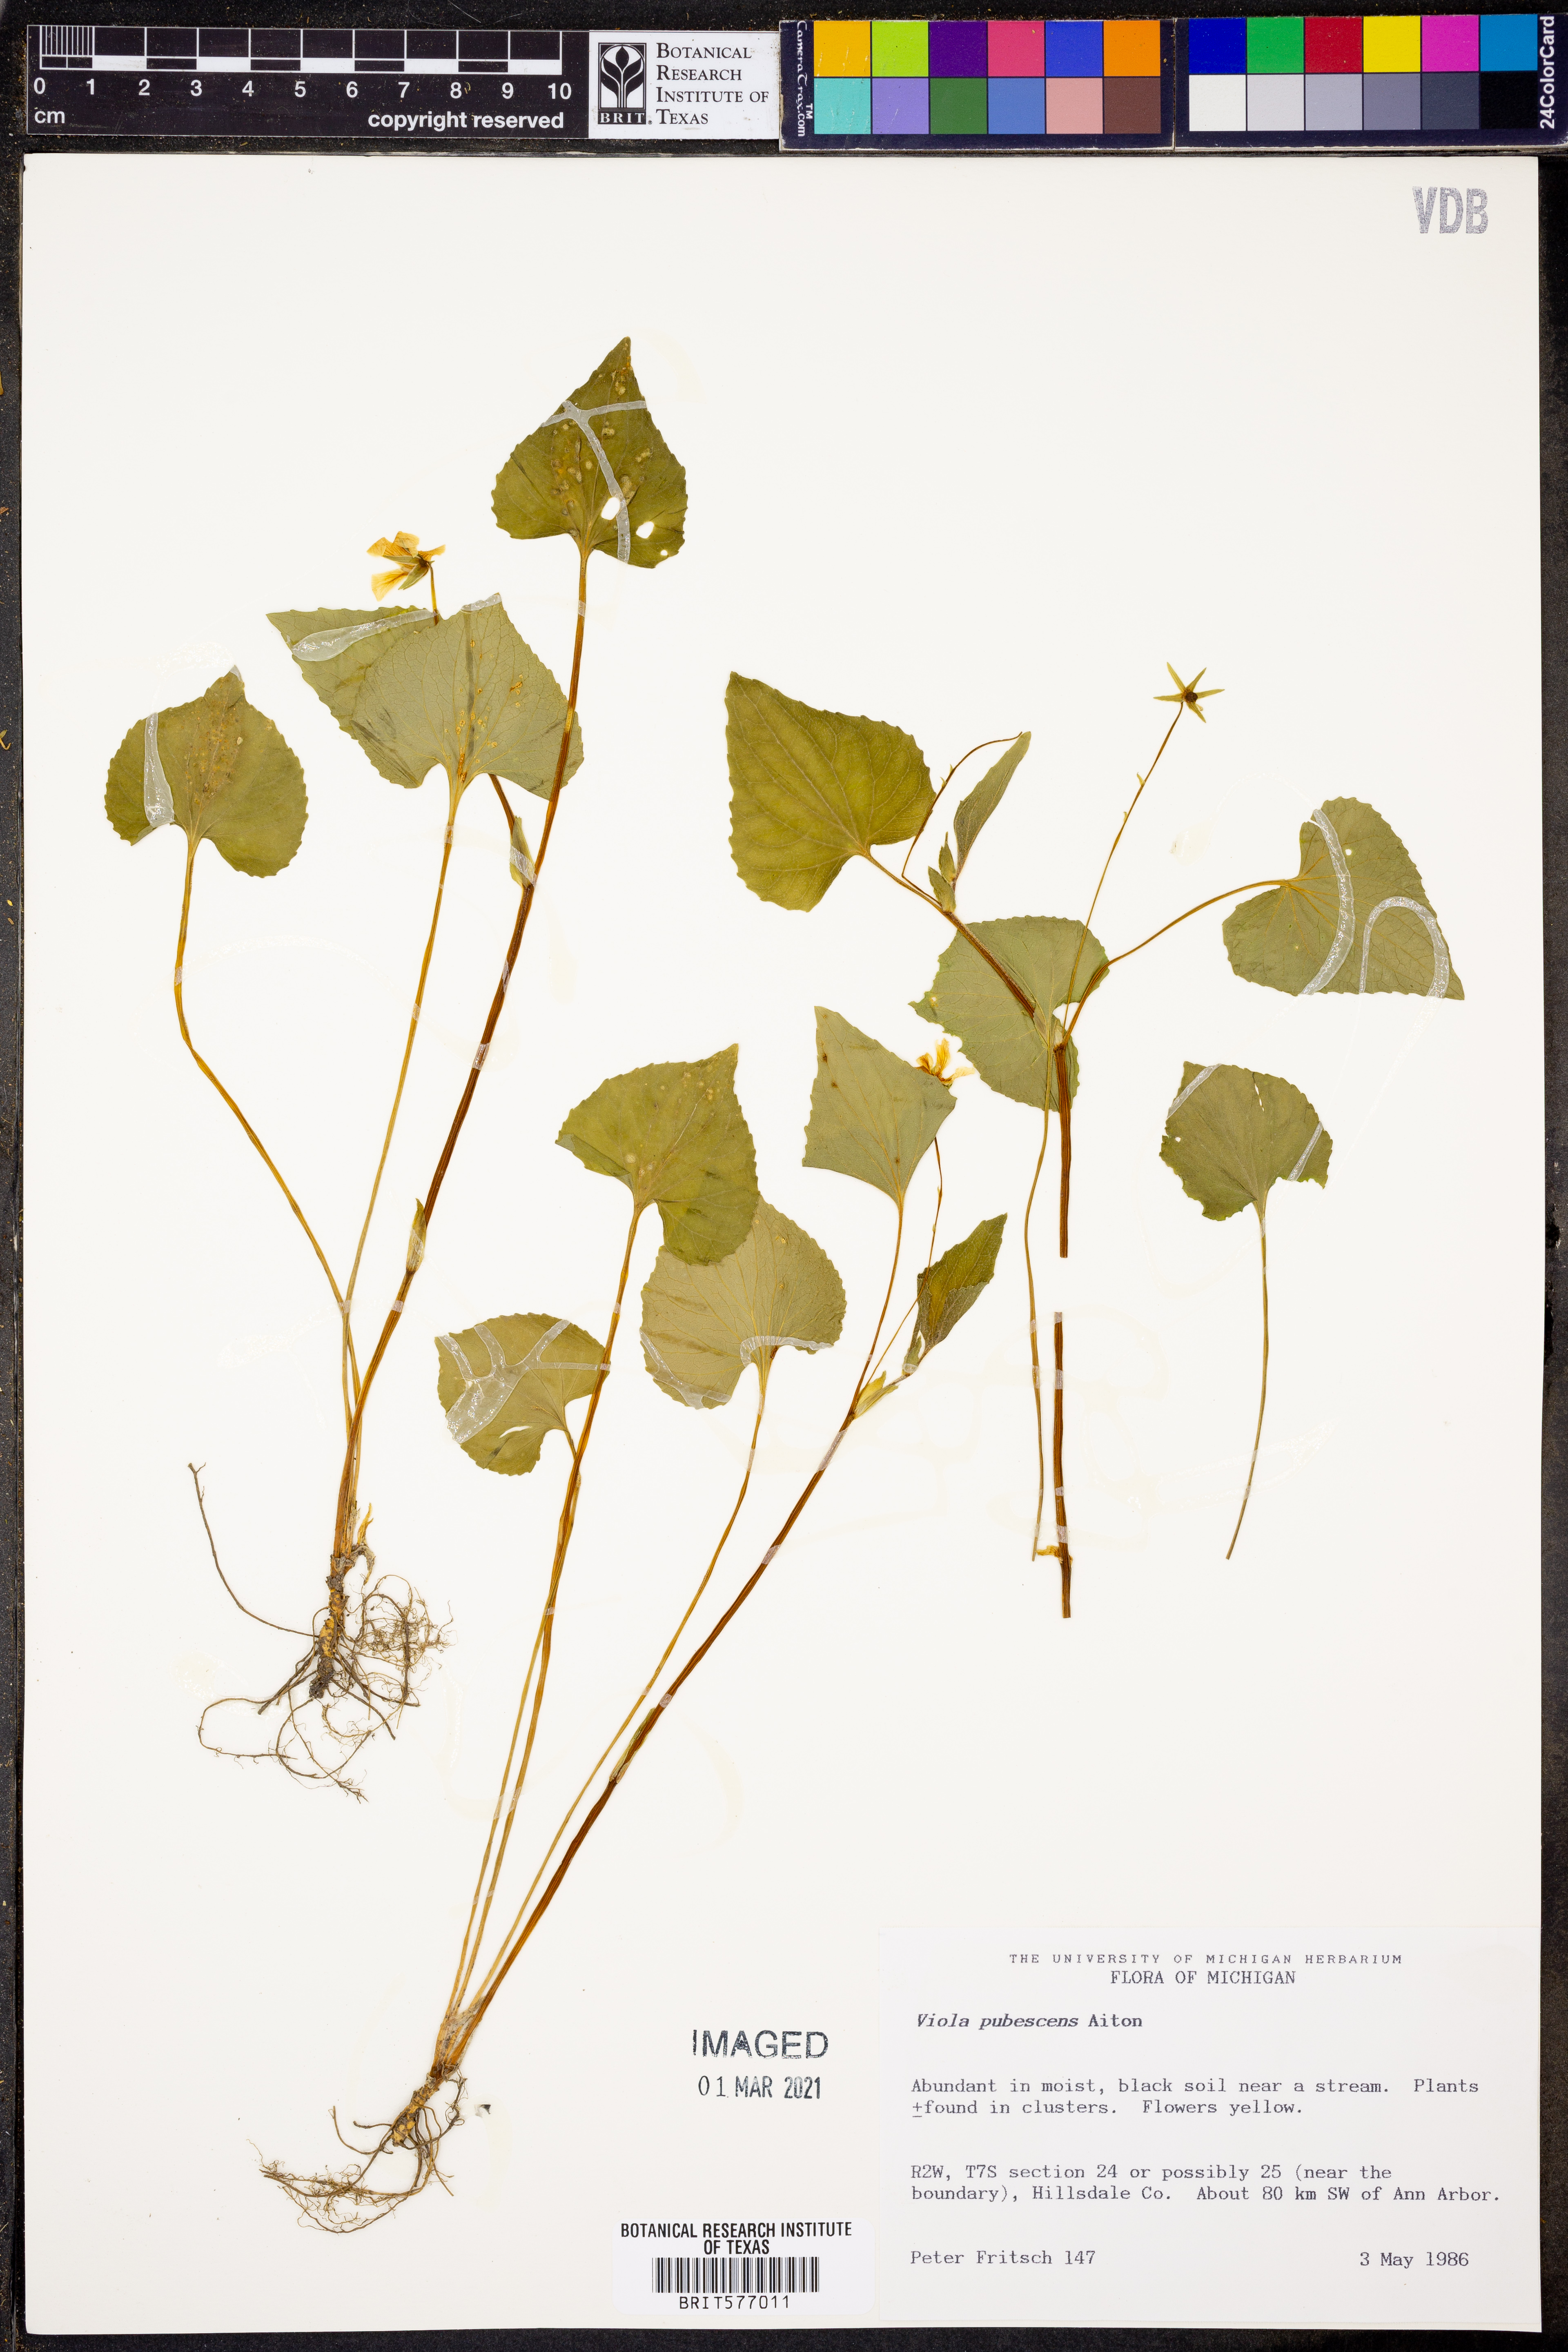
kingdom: Plantae
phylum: Tracheophyta
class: Magnoliopsida
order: Malpighiales
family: Violaceae
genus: Viola
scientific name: Viola pubescens
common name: Yellow forest violet
